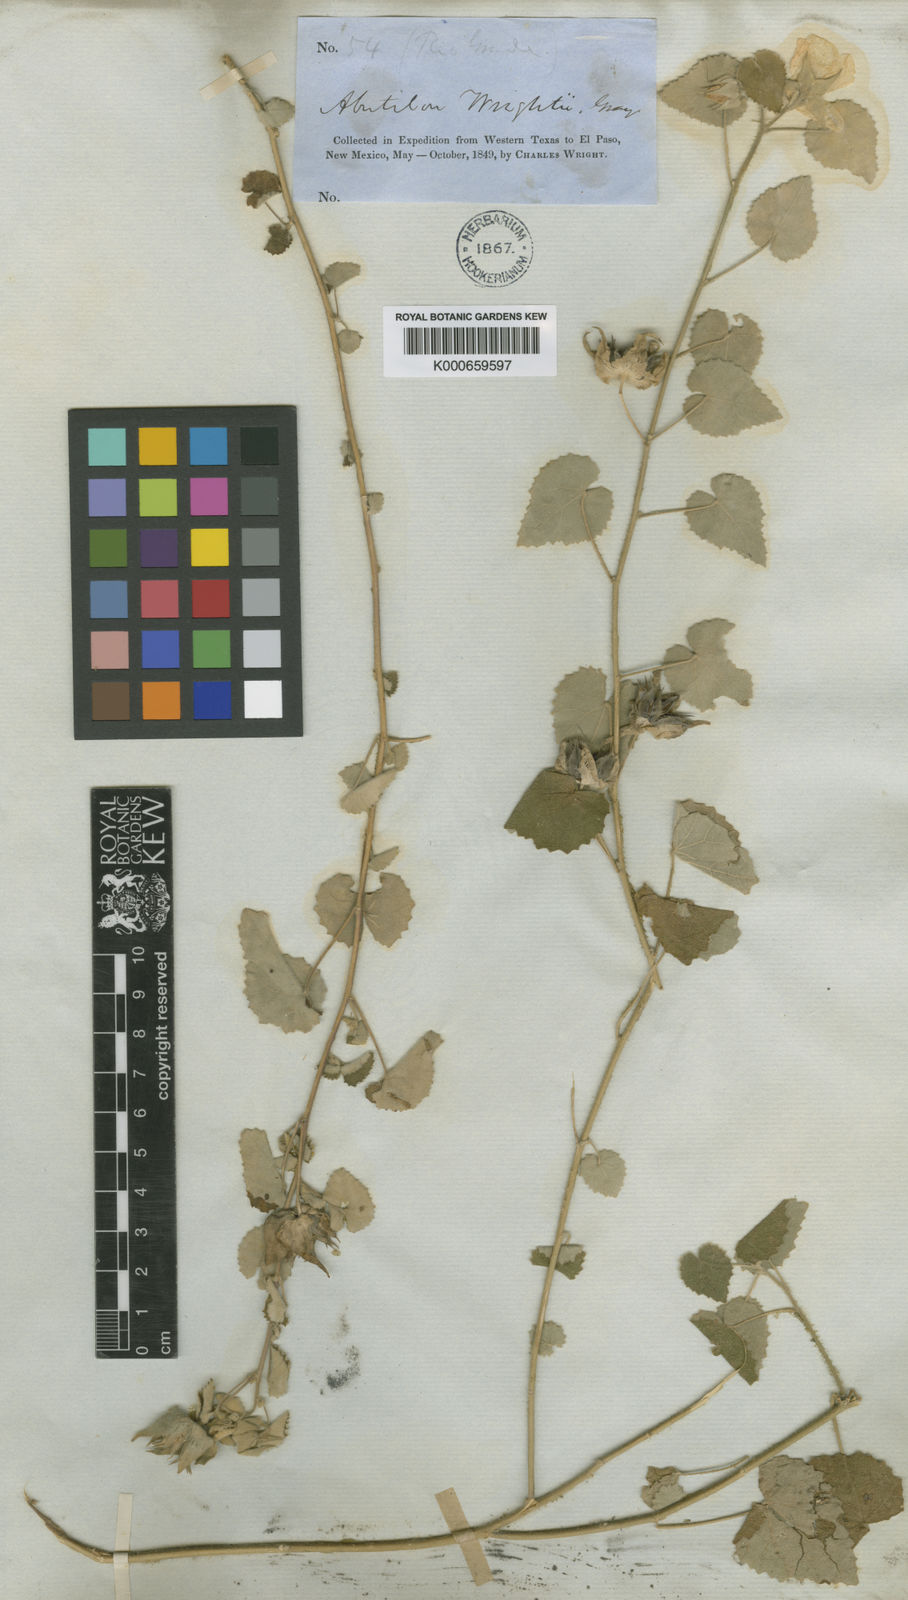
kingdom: Plantae
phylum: Tracheophyta
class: Magnoliopsida
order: Malvales
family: Malvaceae
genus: Abutilon
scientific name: Abutilon wrightii
